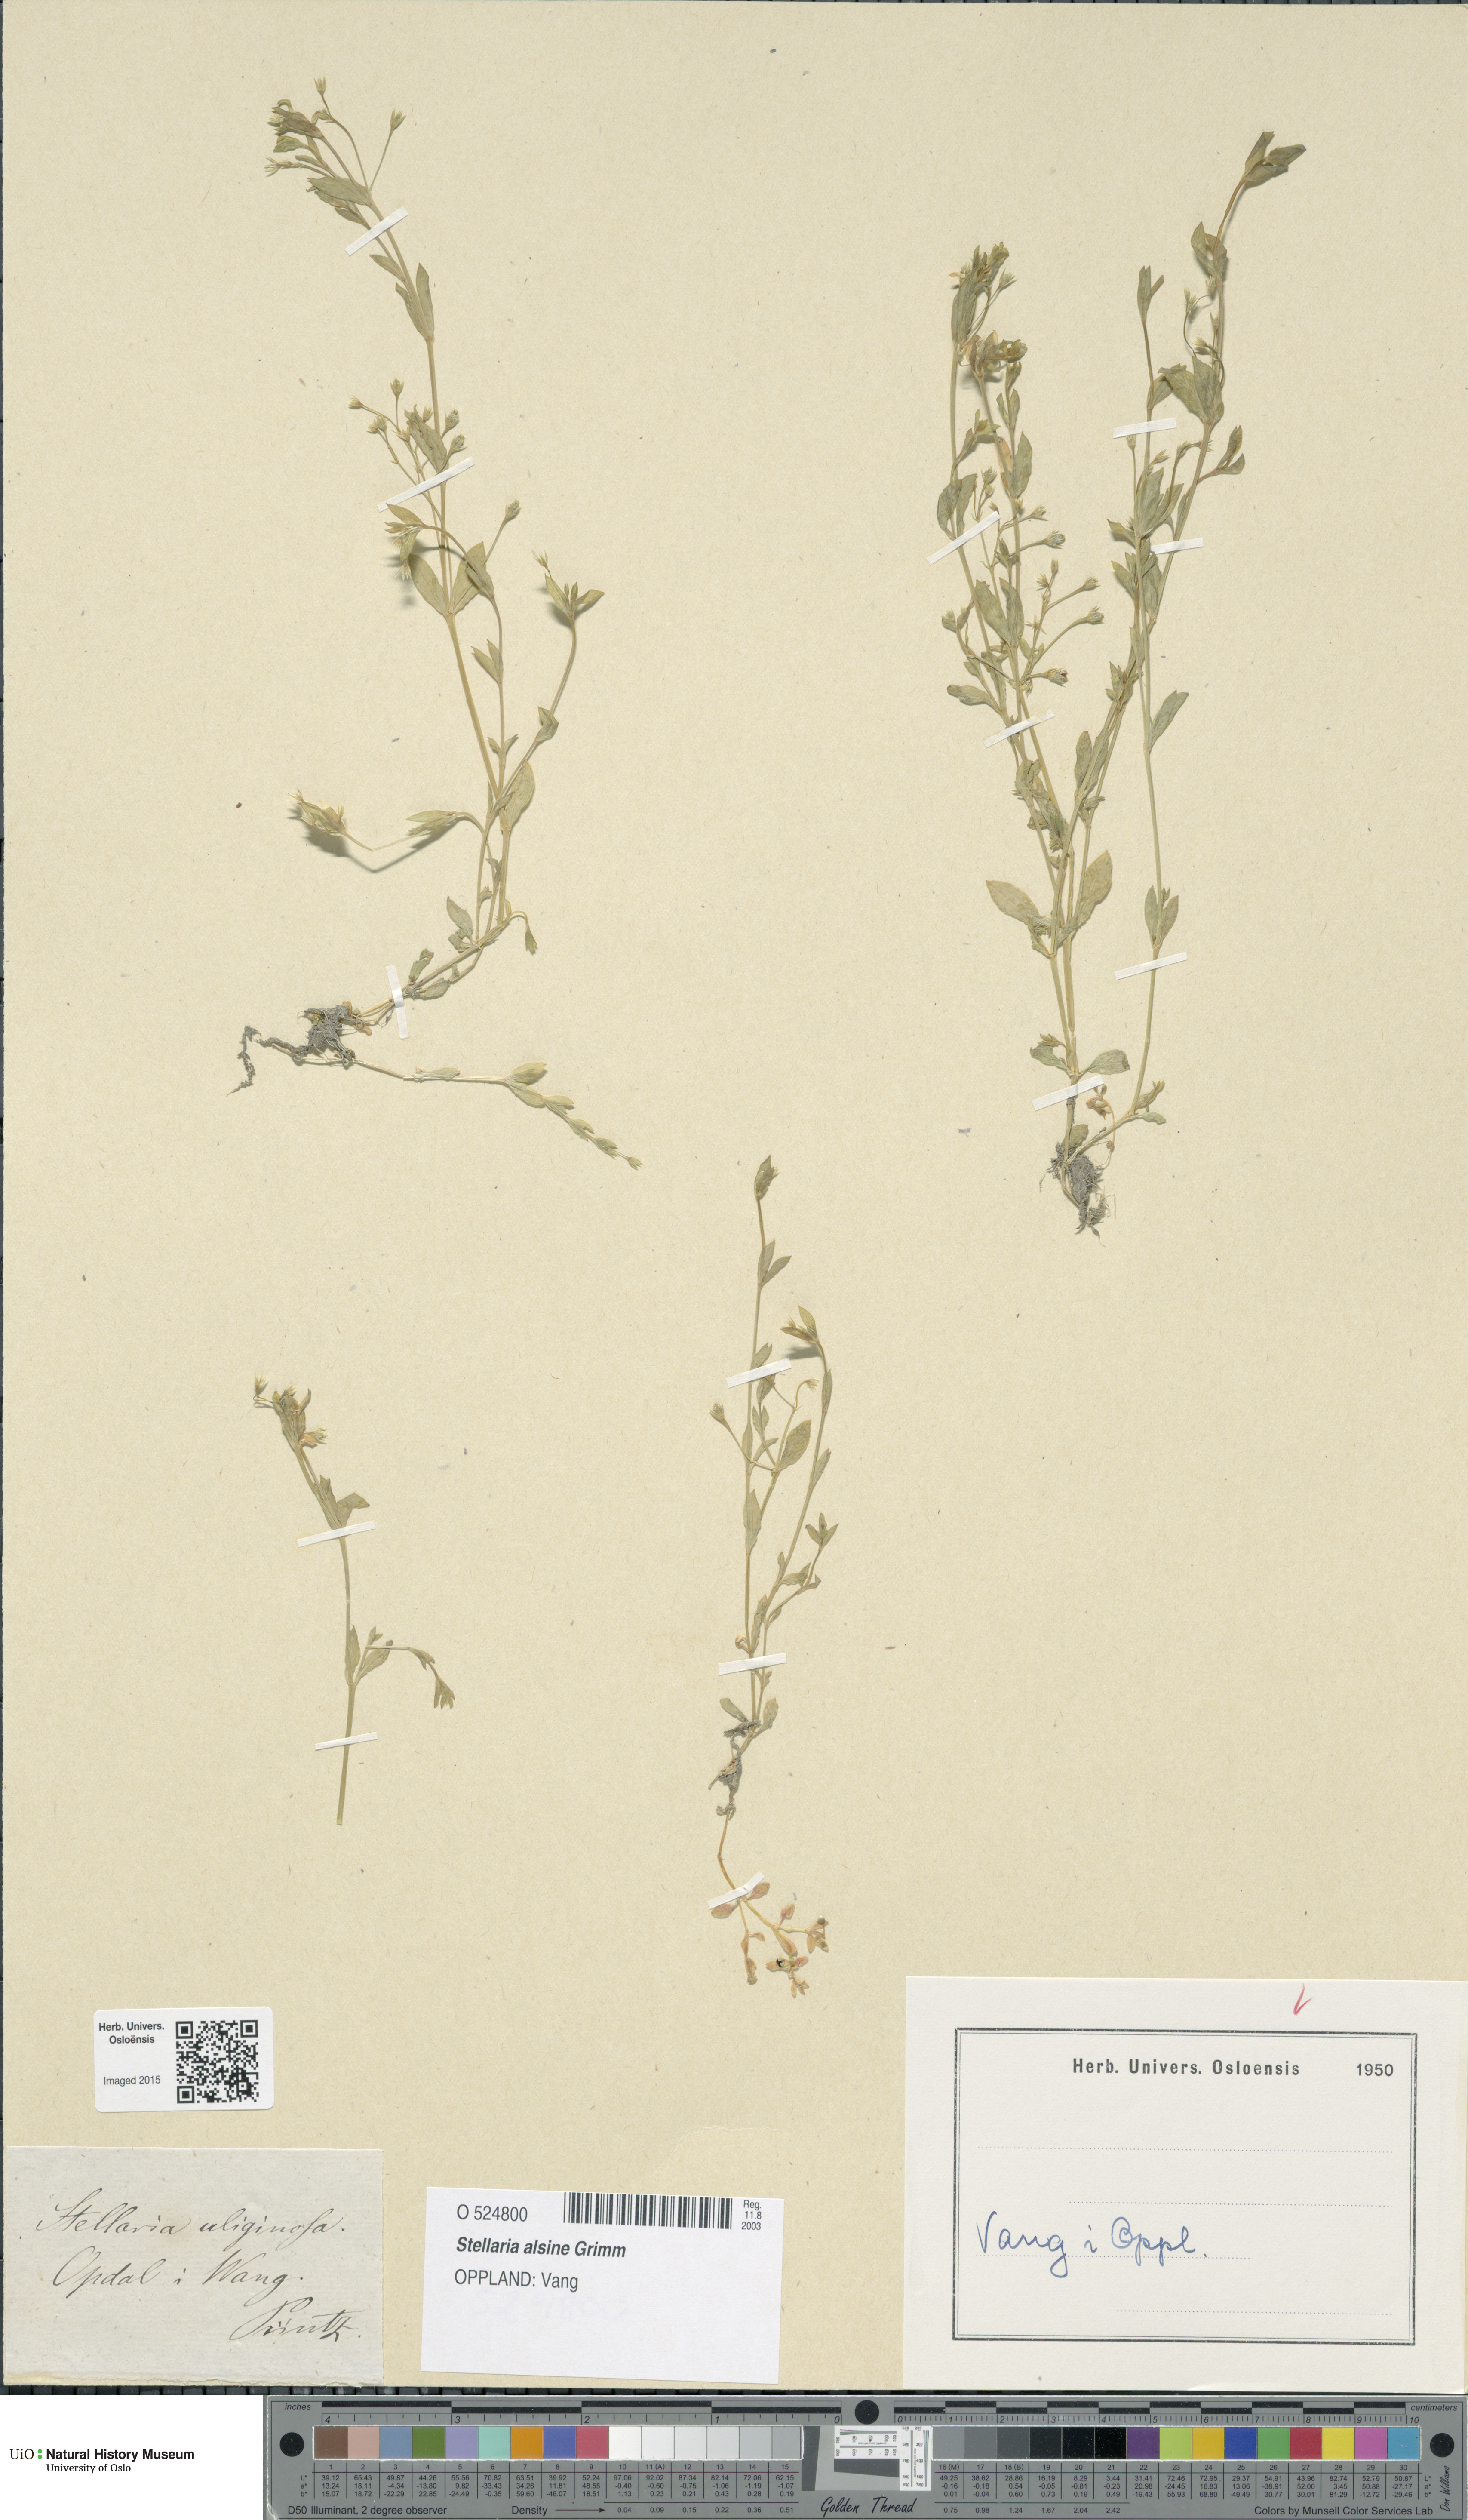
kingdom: Plantae
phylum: Tracheophyta
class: Magnoliopsida
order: Caryophyllales
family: Caryophyllaceae
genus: Stellaria
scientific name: Stellaria alsine
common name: Bog stitchwort
